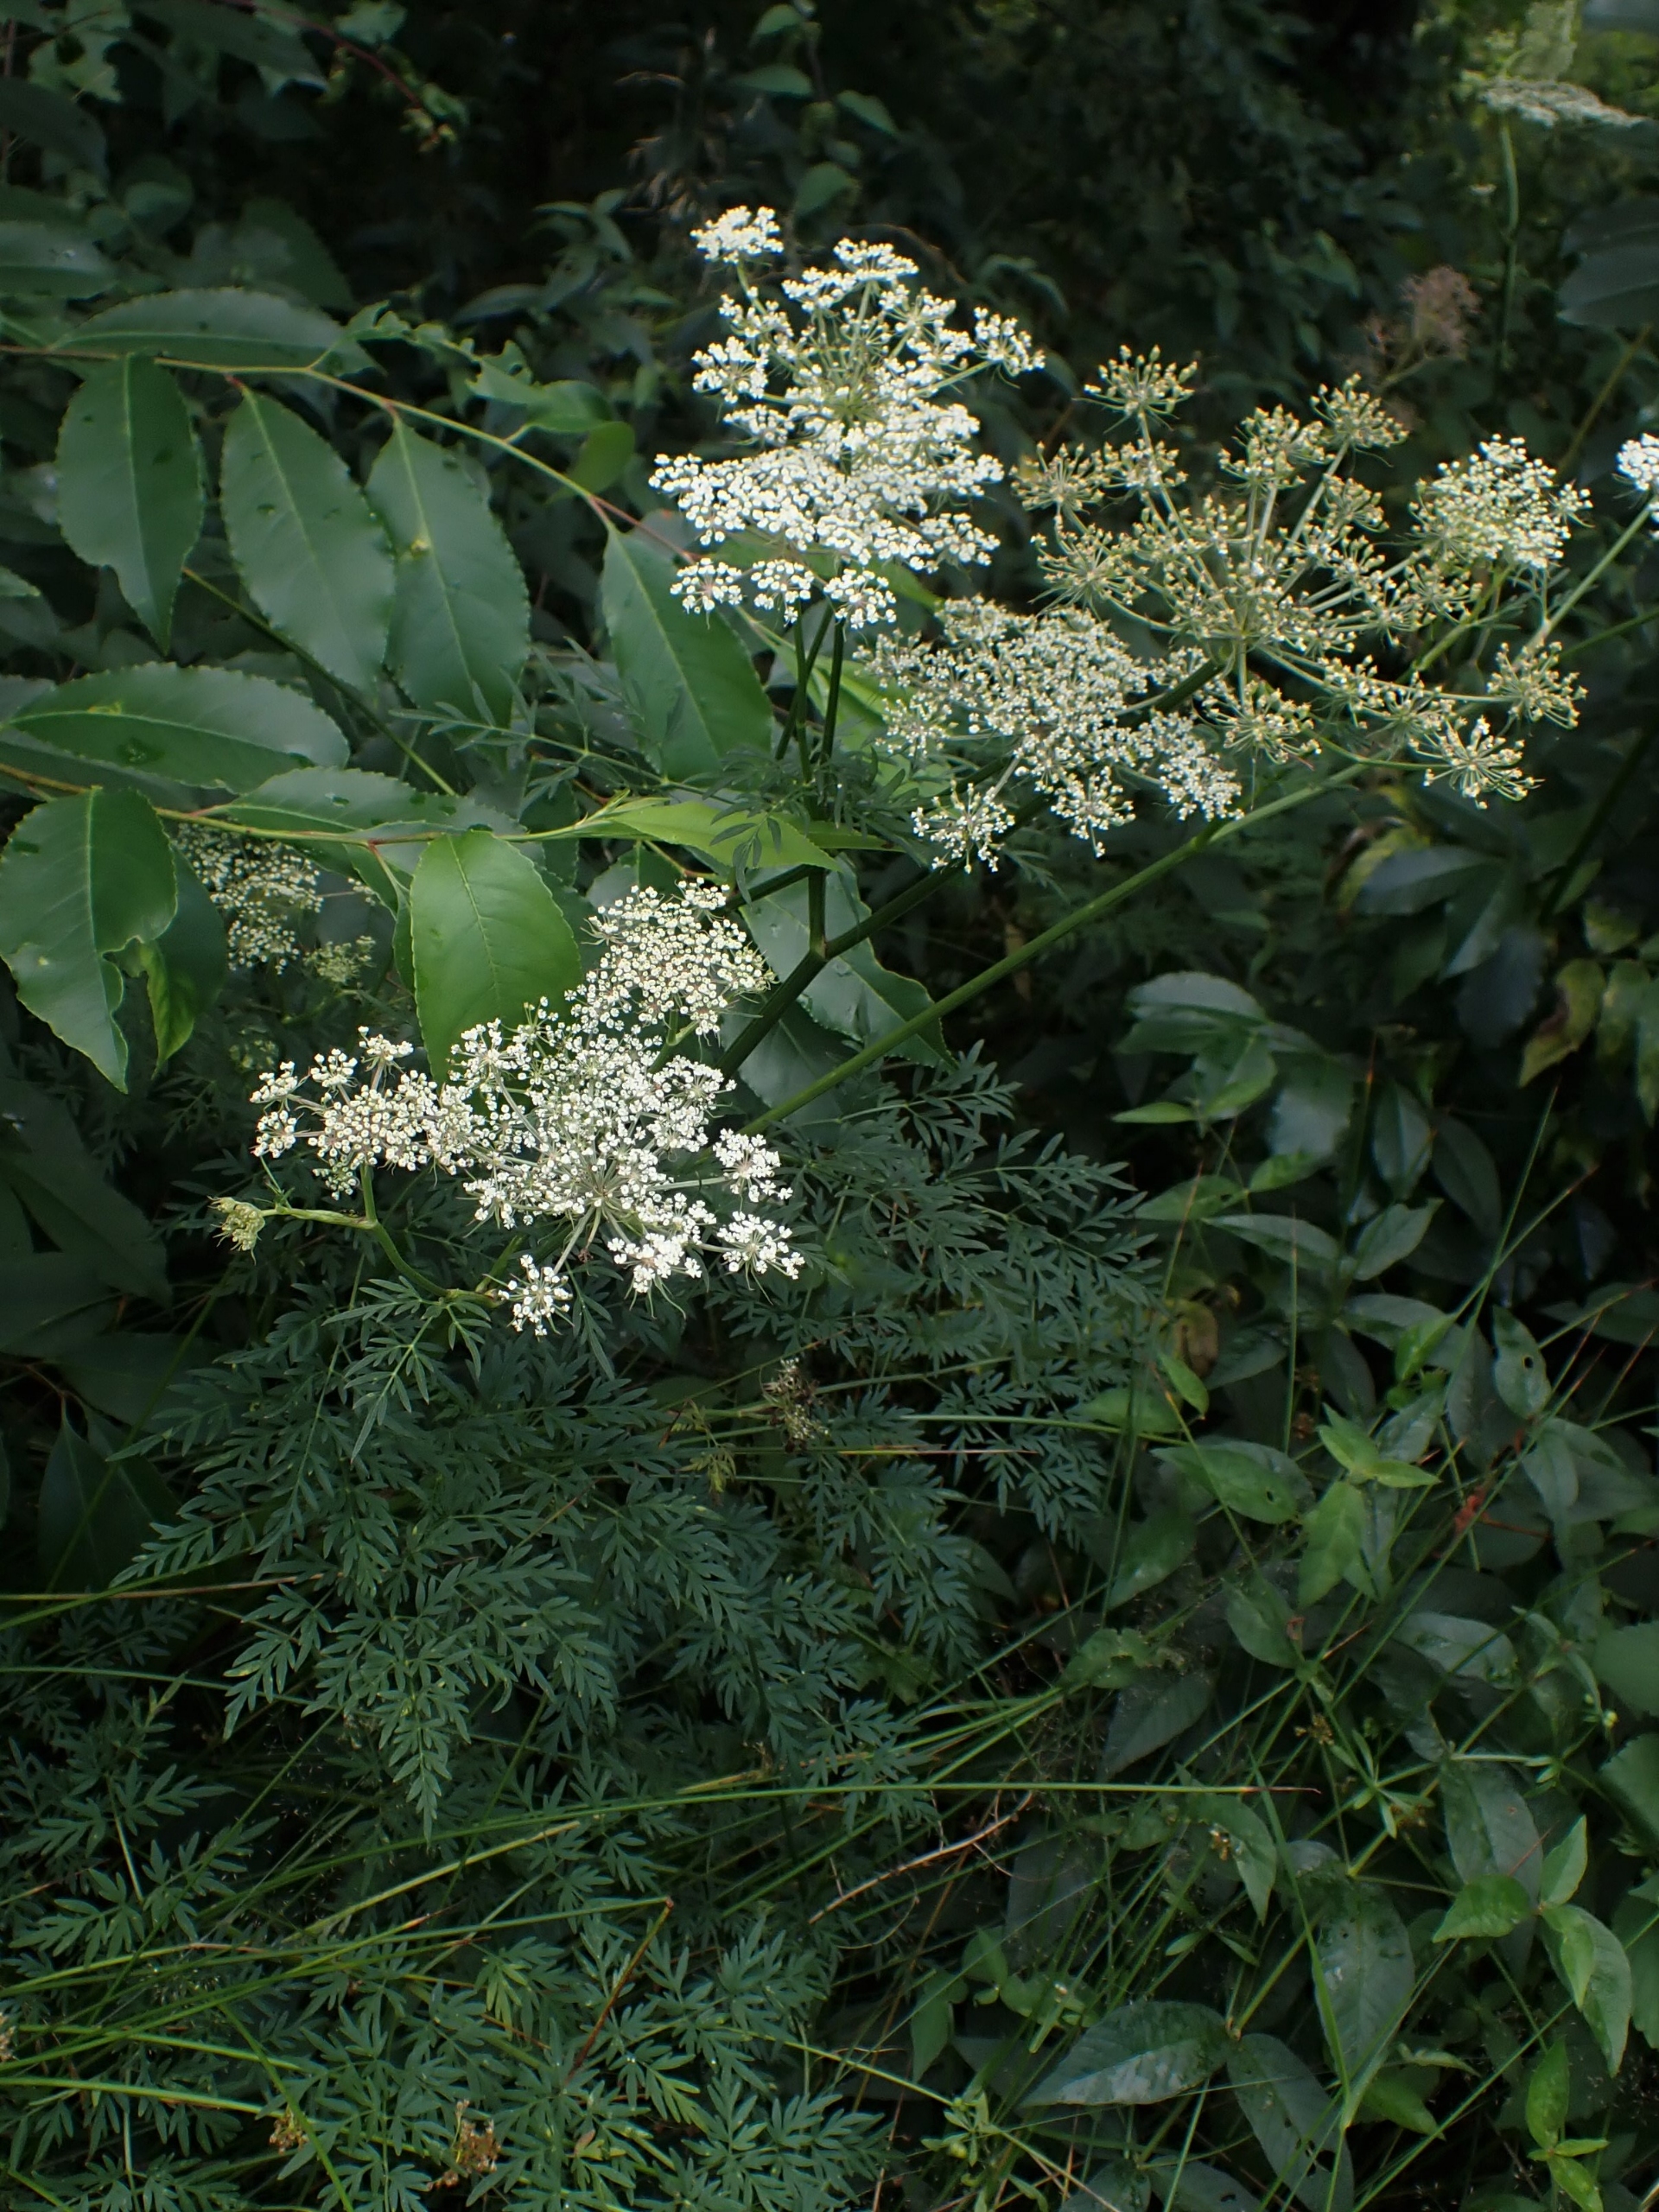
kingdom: Plantae
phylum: Tracheophyta
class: Magnoliopsida
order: Apiales
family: Apiaceae
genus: Thysselinum
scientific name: Thysselinum palustre
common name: Kær-svovlrod
